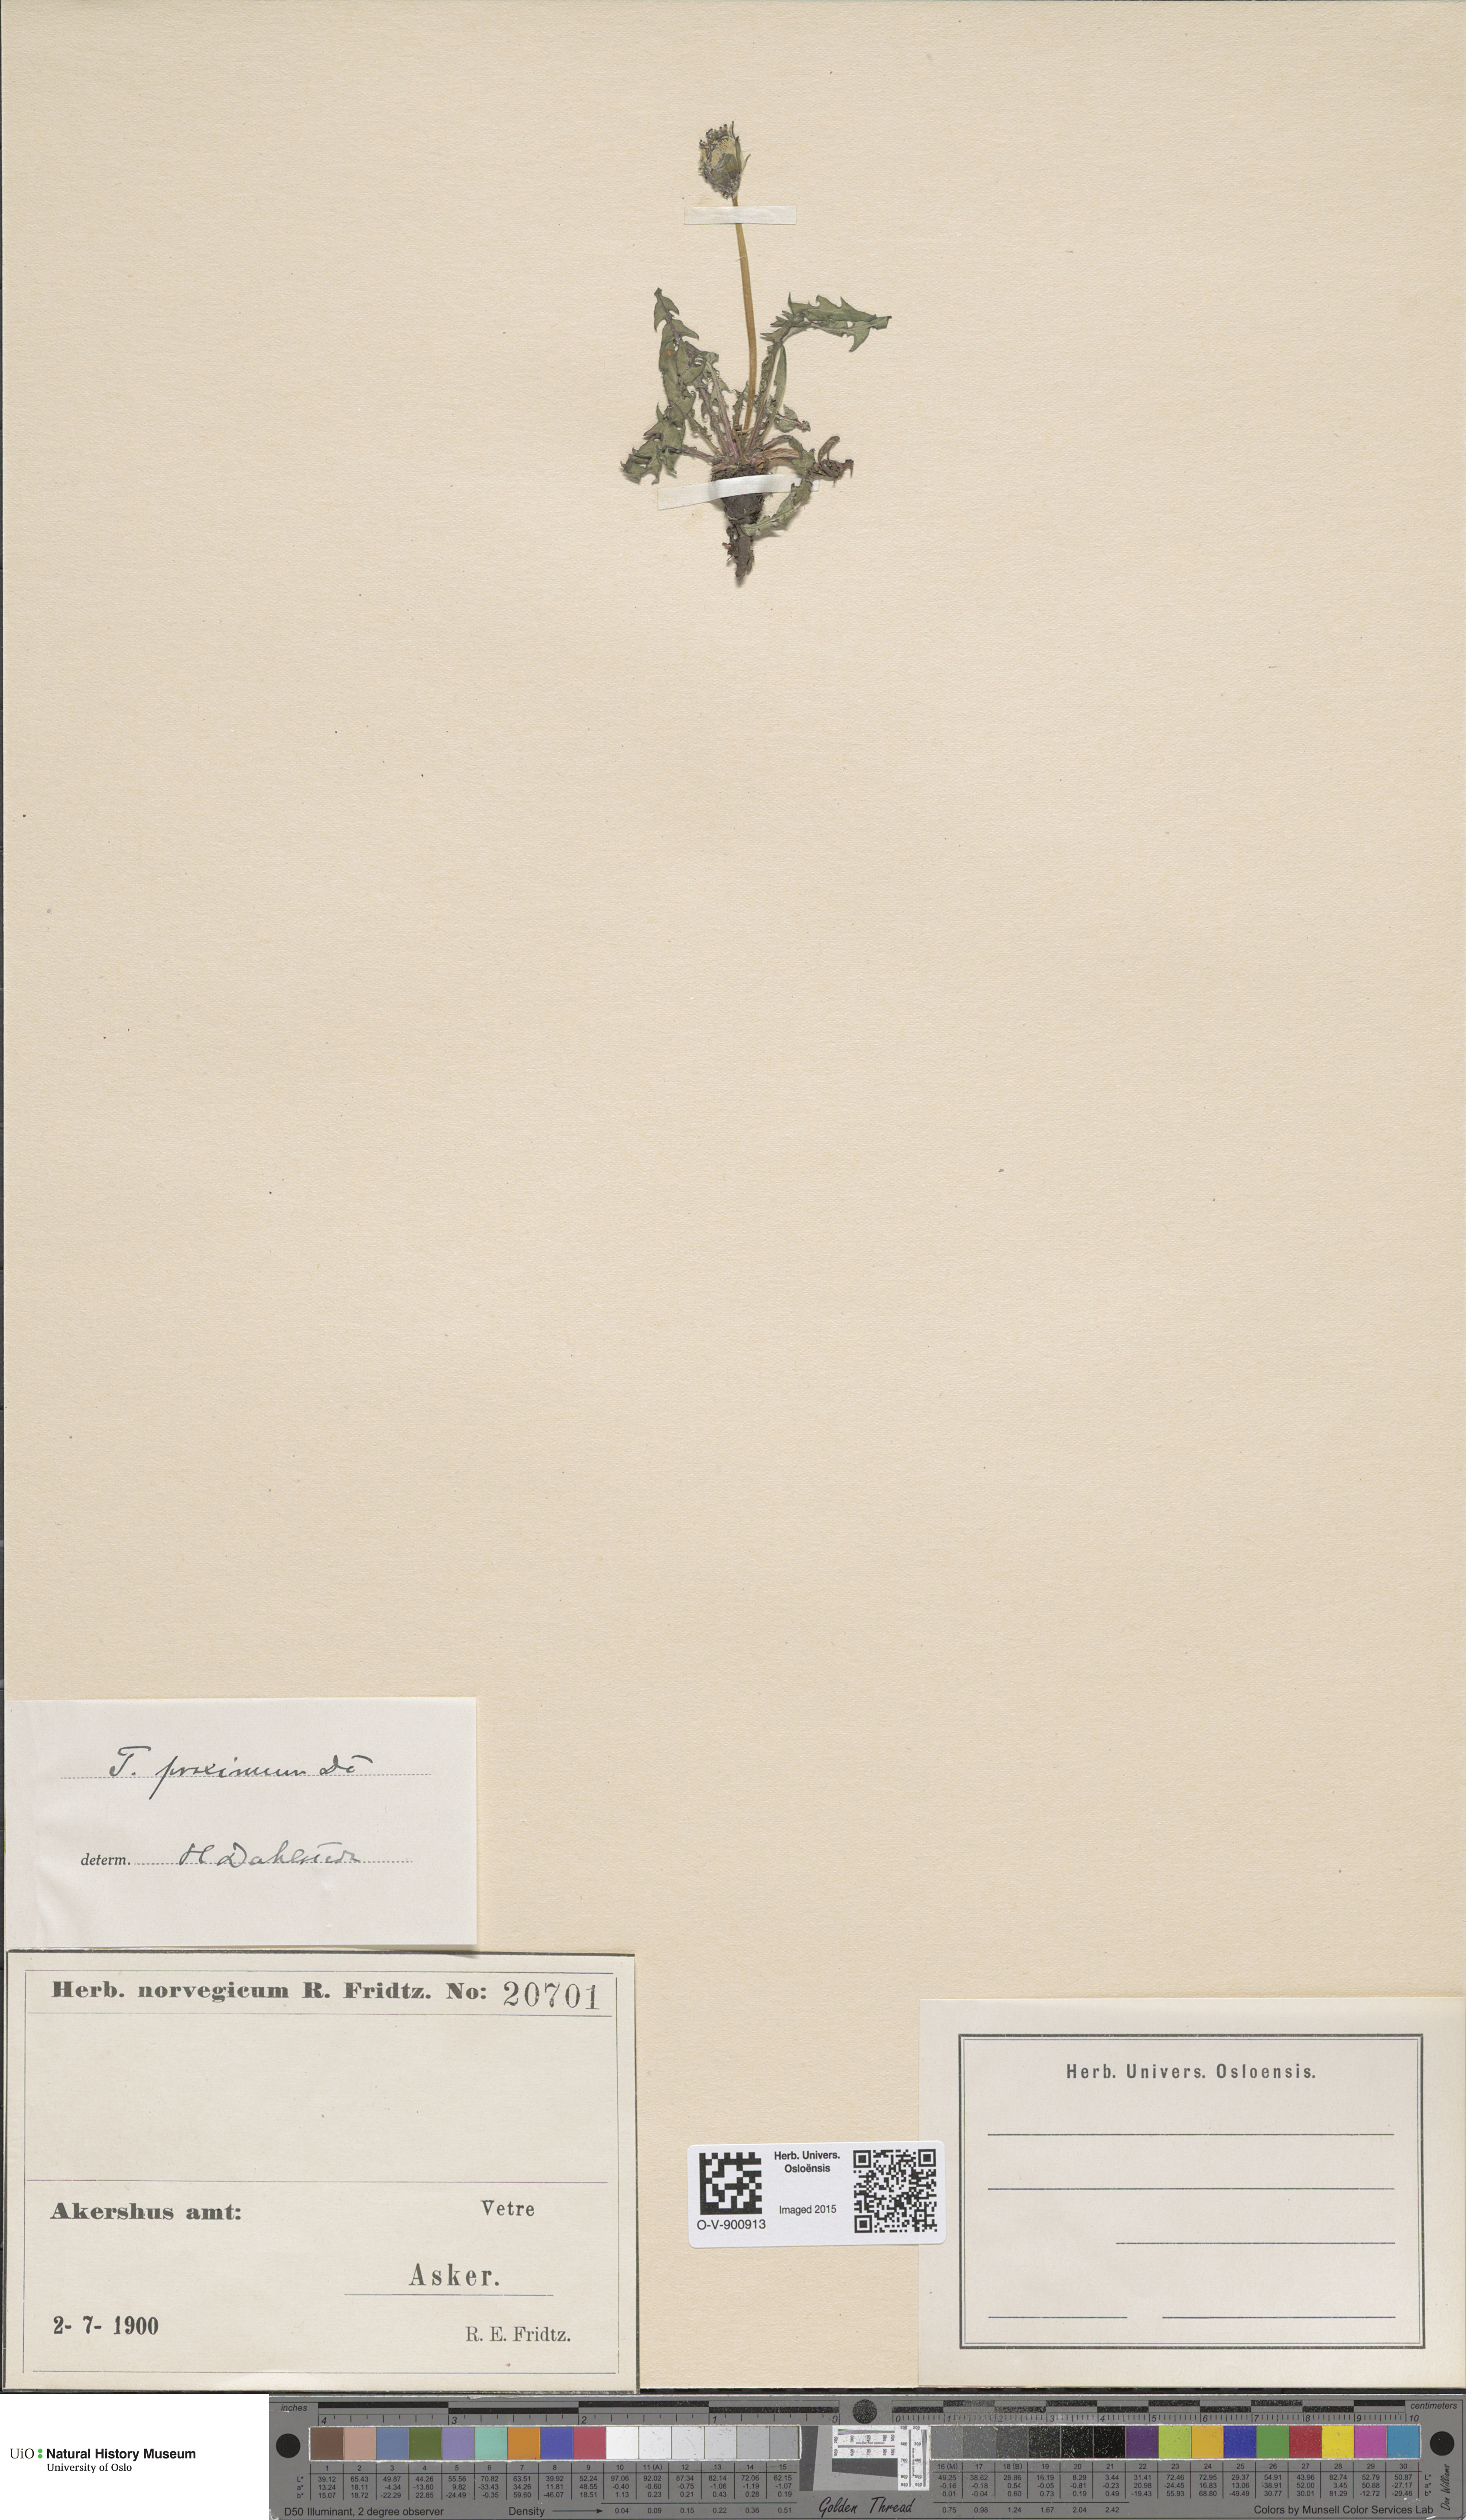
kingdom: Plantae
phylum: Tracheophyta
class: Magnoliopsida
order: Asterales
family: Asteraceae
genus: Taraxacum
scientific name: Taraxacum proximum
